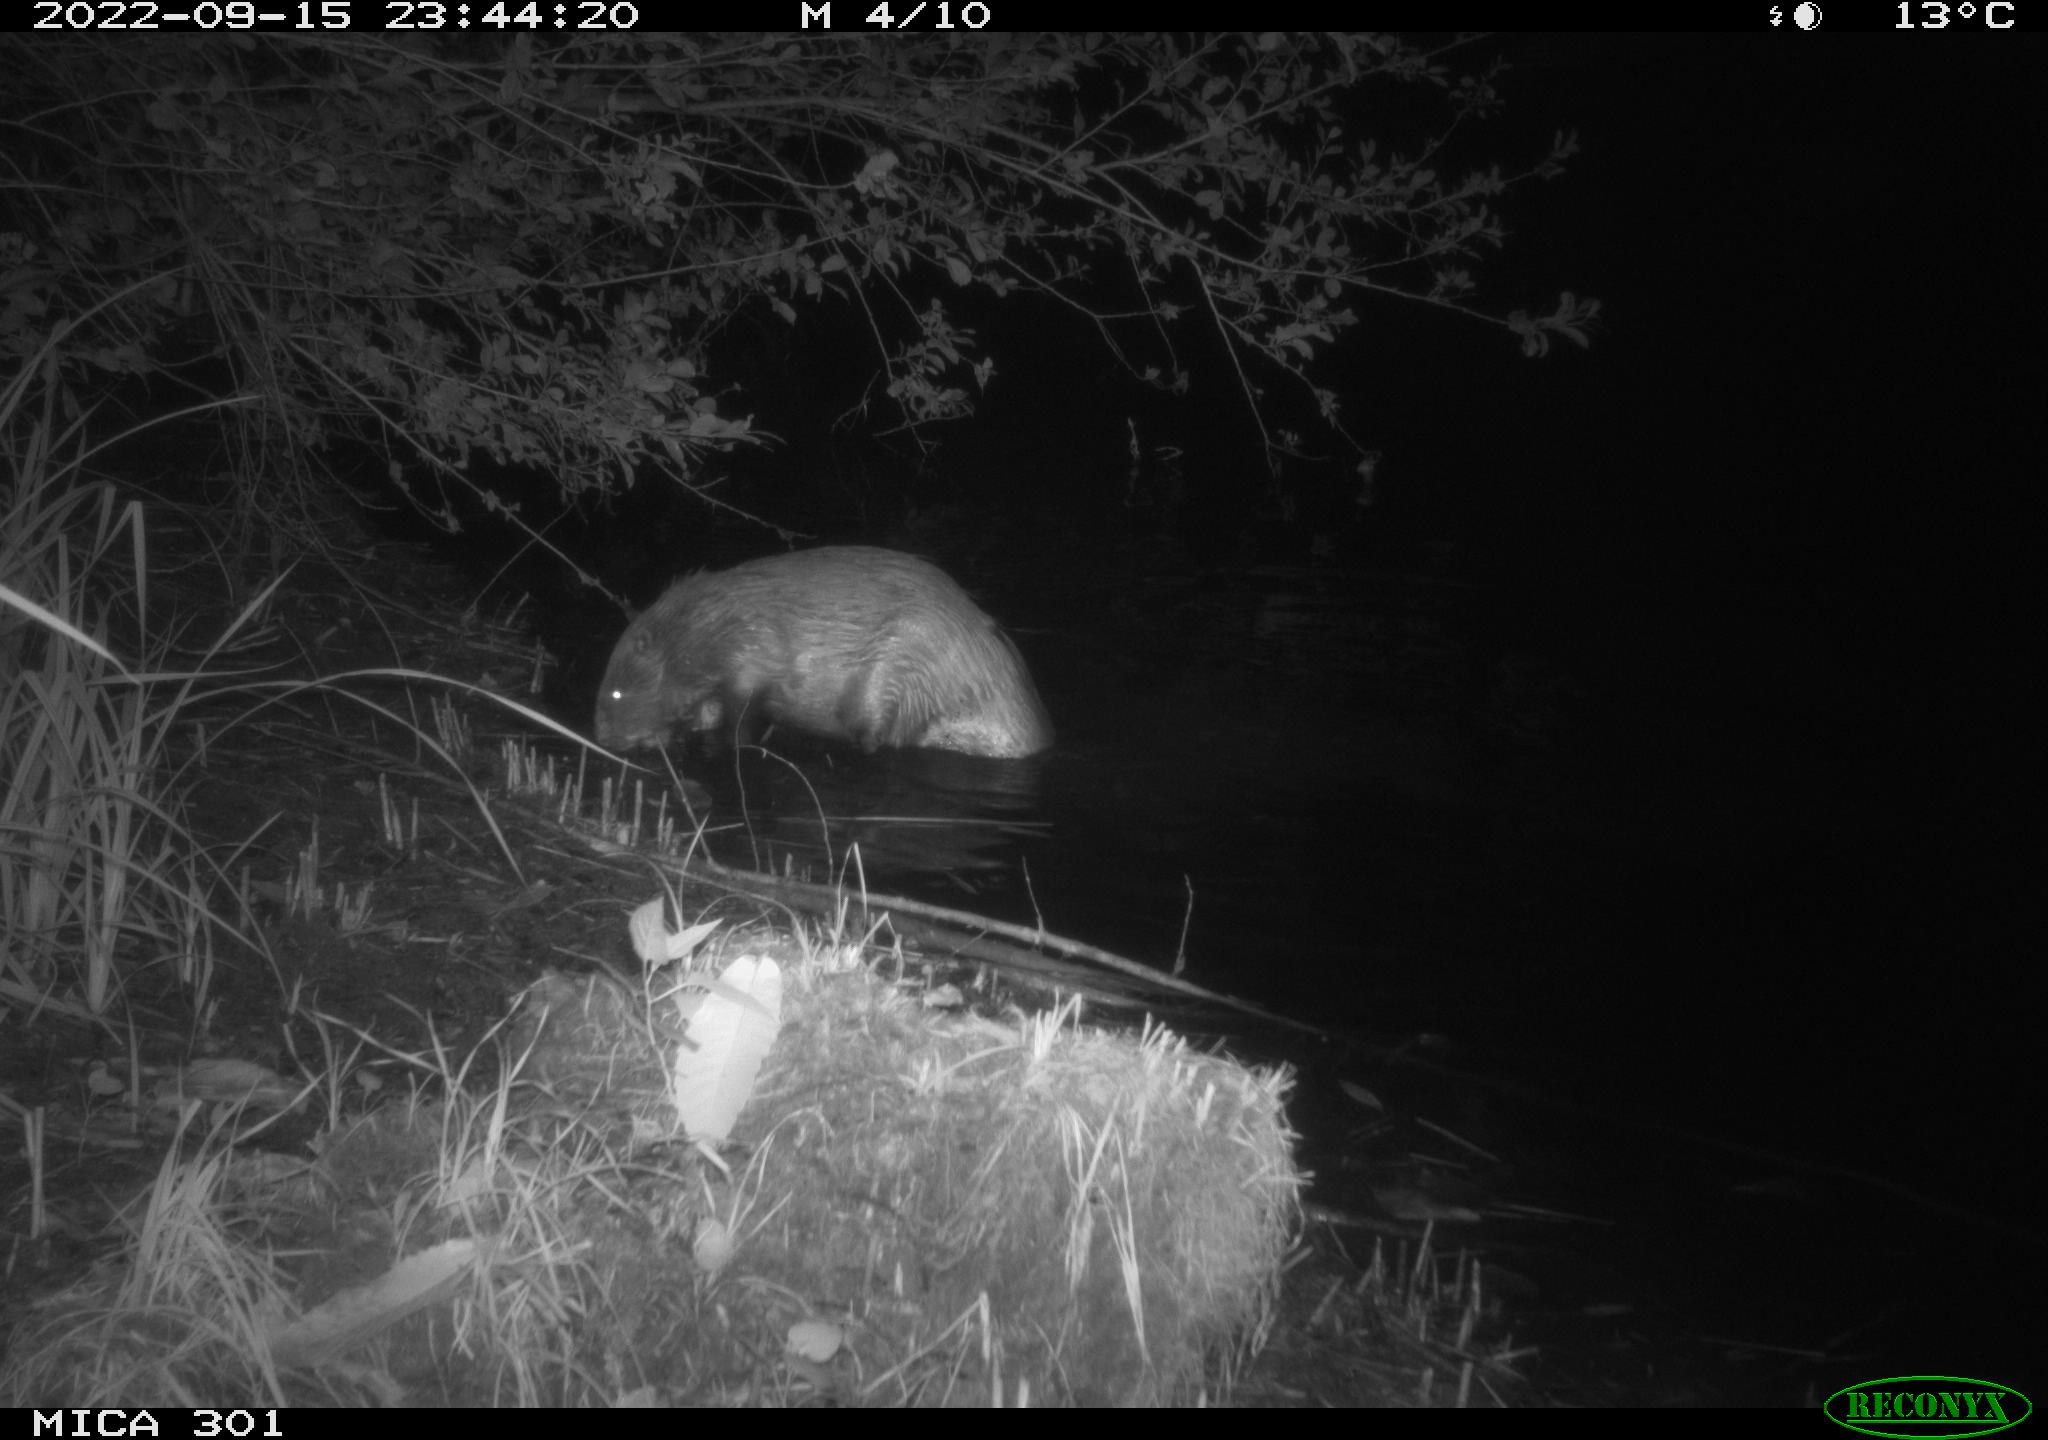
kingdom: Animalia
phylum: Chordata
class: Mammalia
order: Rodentia
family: Castoridae
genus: Castor
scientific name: Castor fiber
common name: Eurasian beaver
